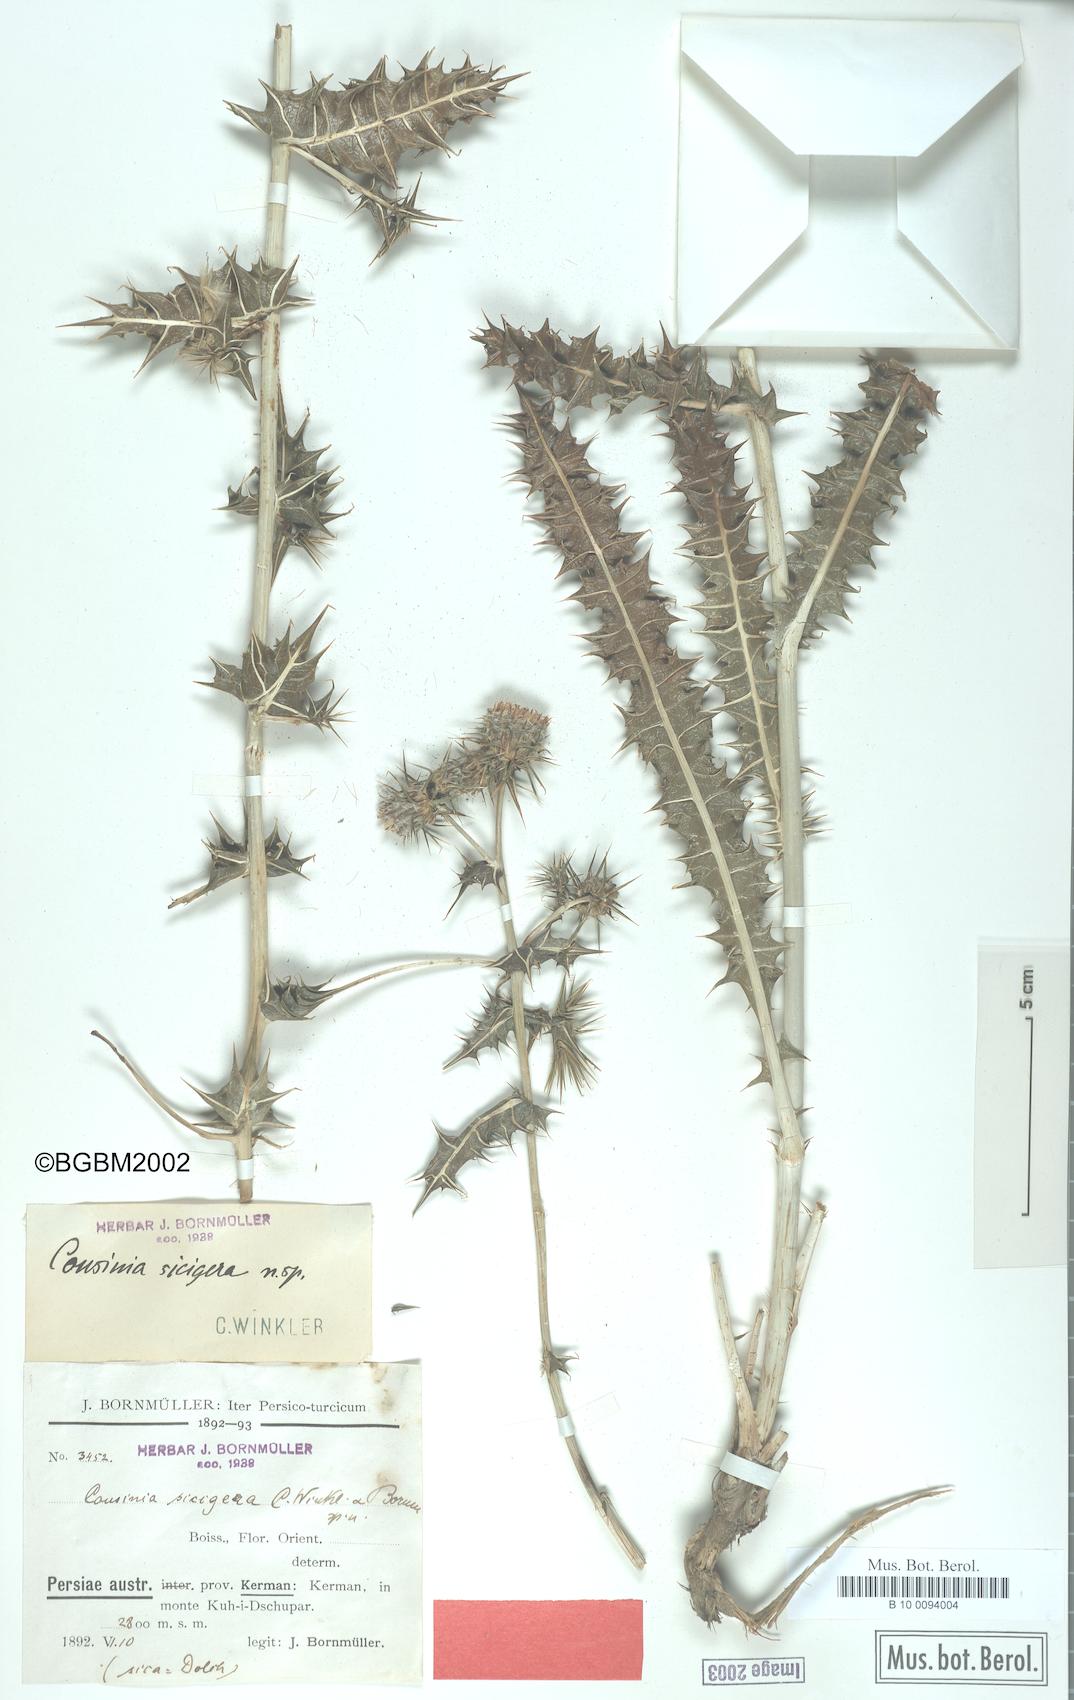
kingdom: Plantae
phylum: Tracheophyta
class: Magnoliopsida
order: Asterales
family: Asteraceae
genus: Cousinia
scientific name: Cousinia sicigera
